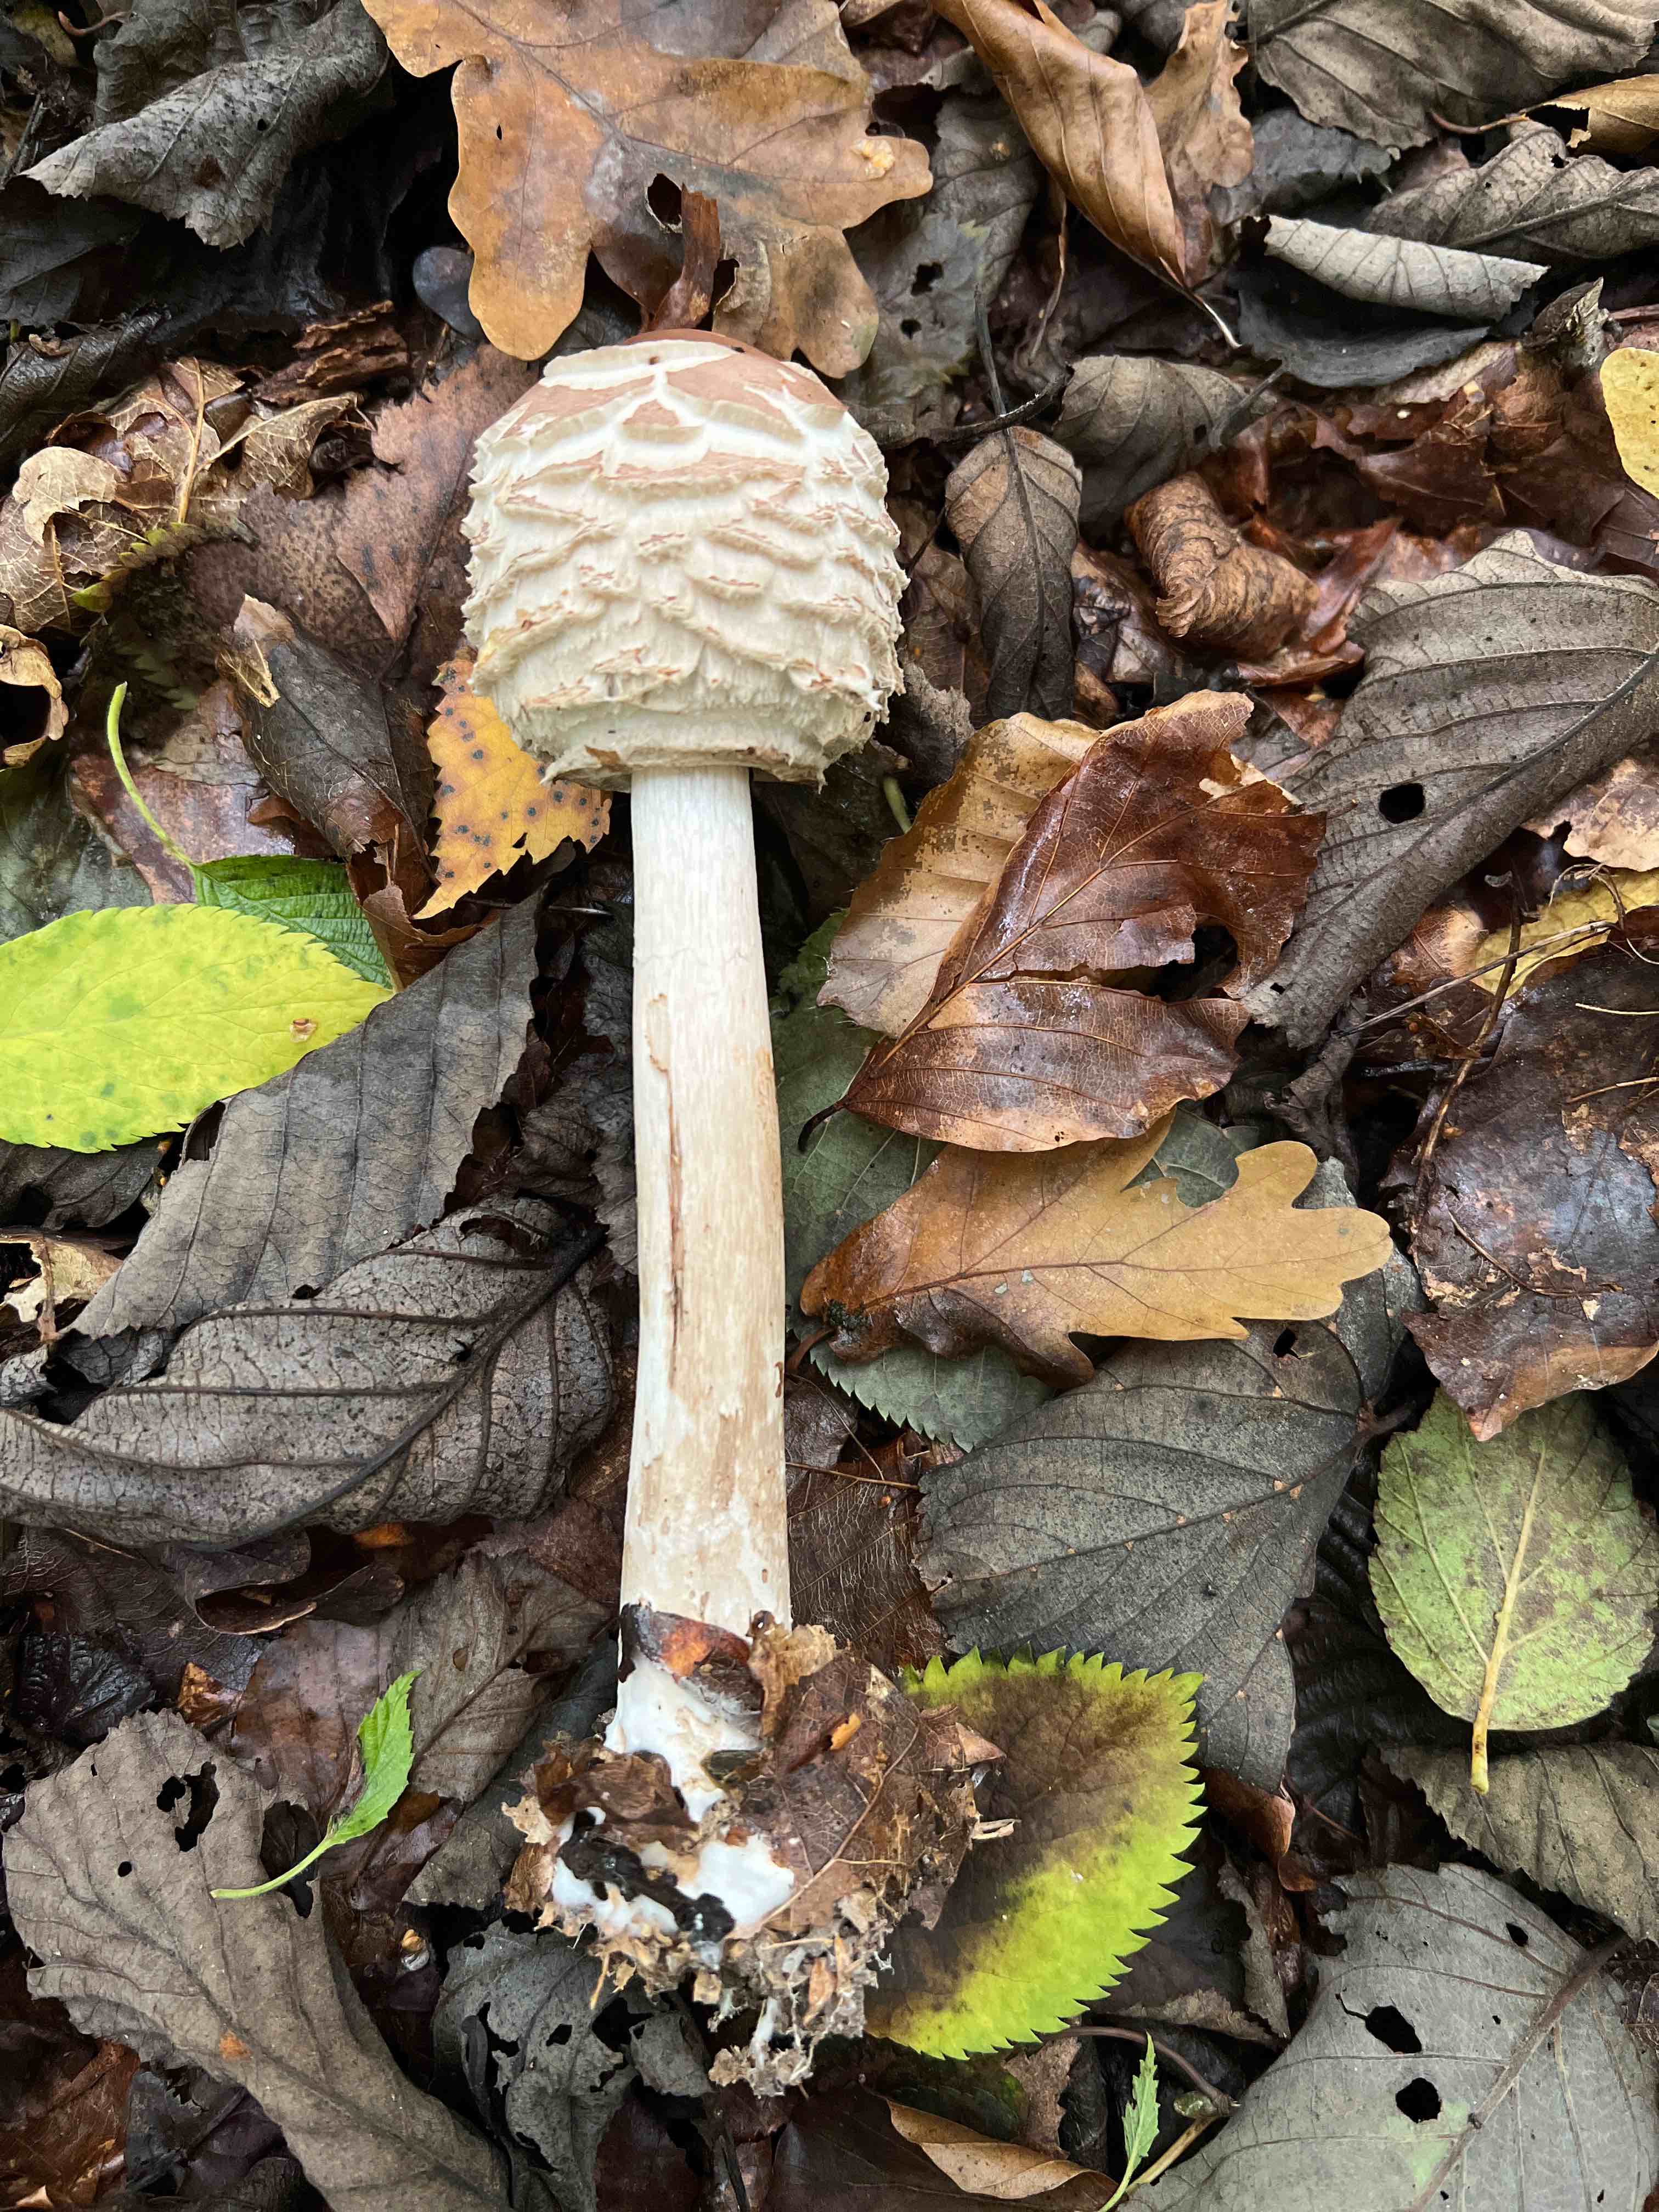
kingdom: Fungi
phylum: Basidiomycota
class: Agaricomycetes
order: Agaricales
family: Agaricaceae
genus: Chlorophyllum
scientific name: Chlorophyllum
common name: rabarberhat
